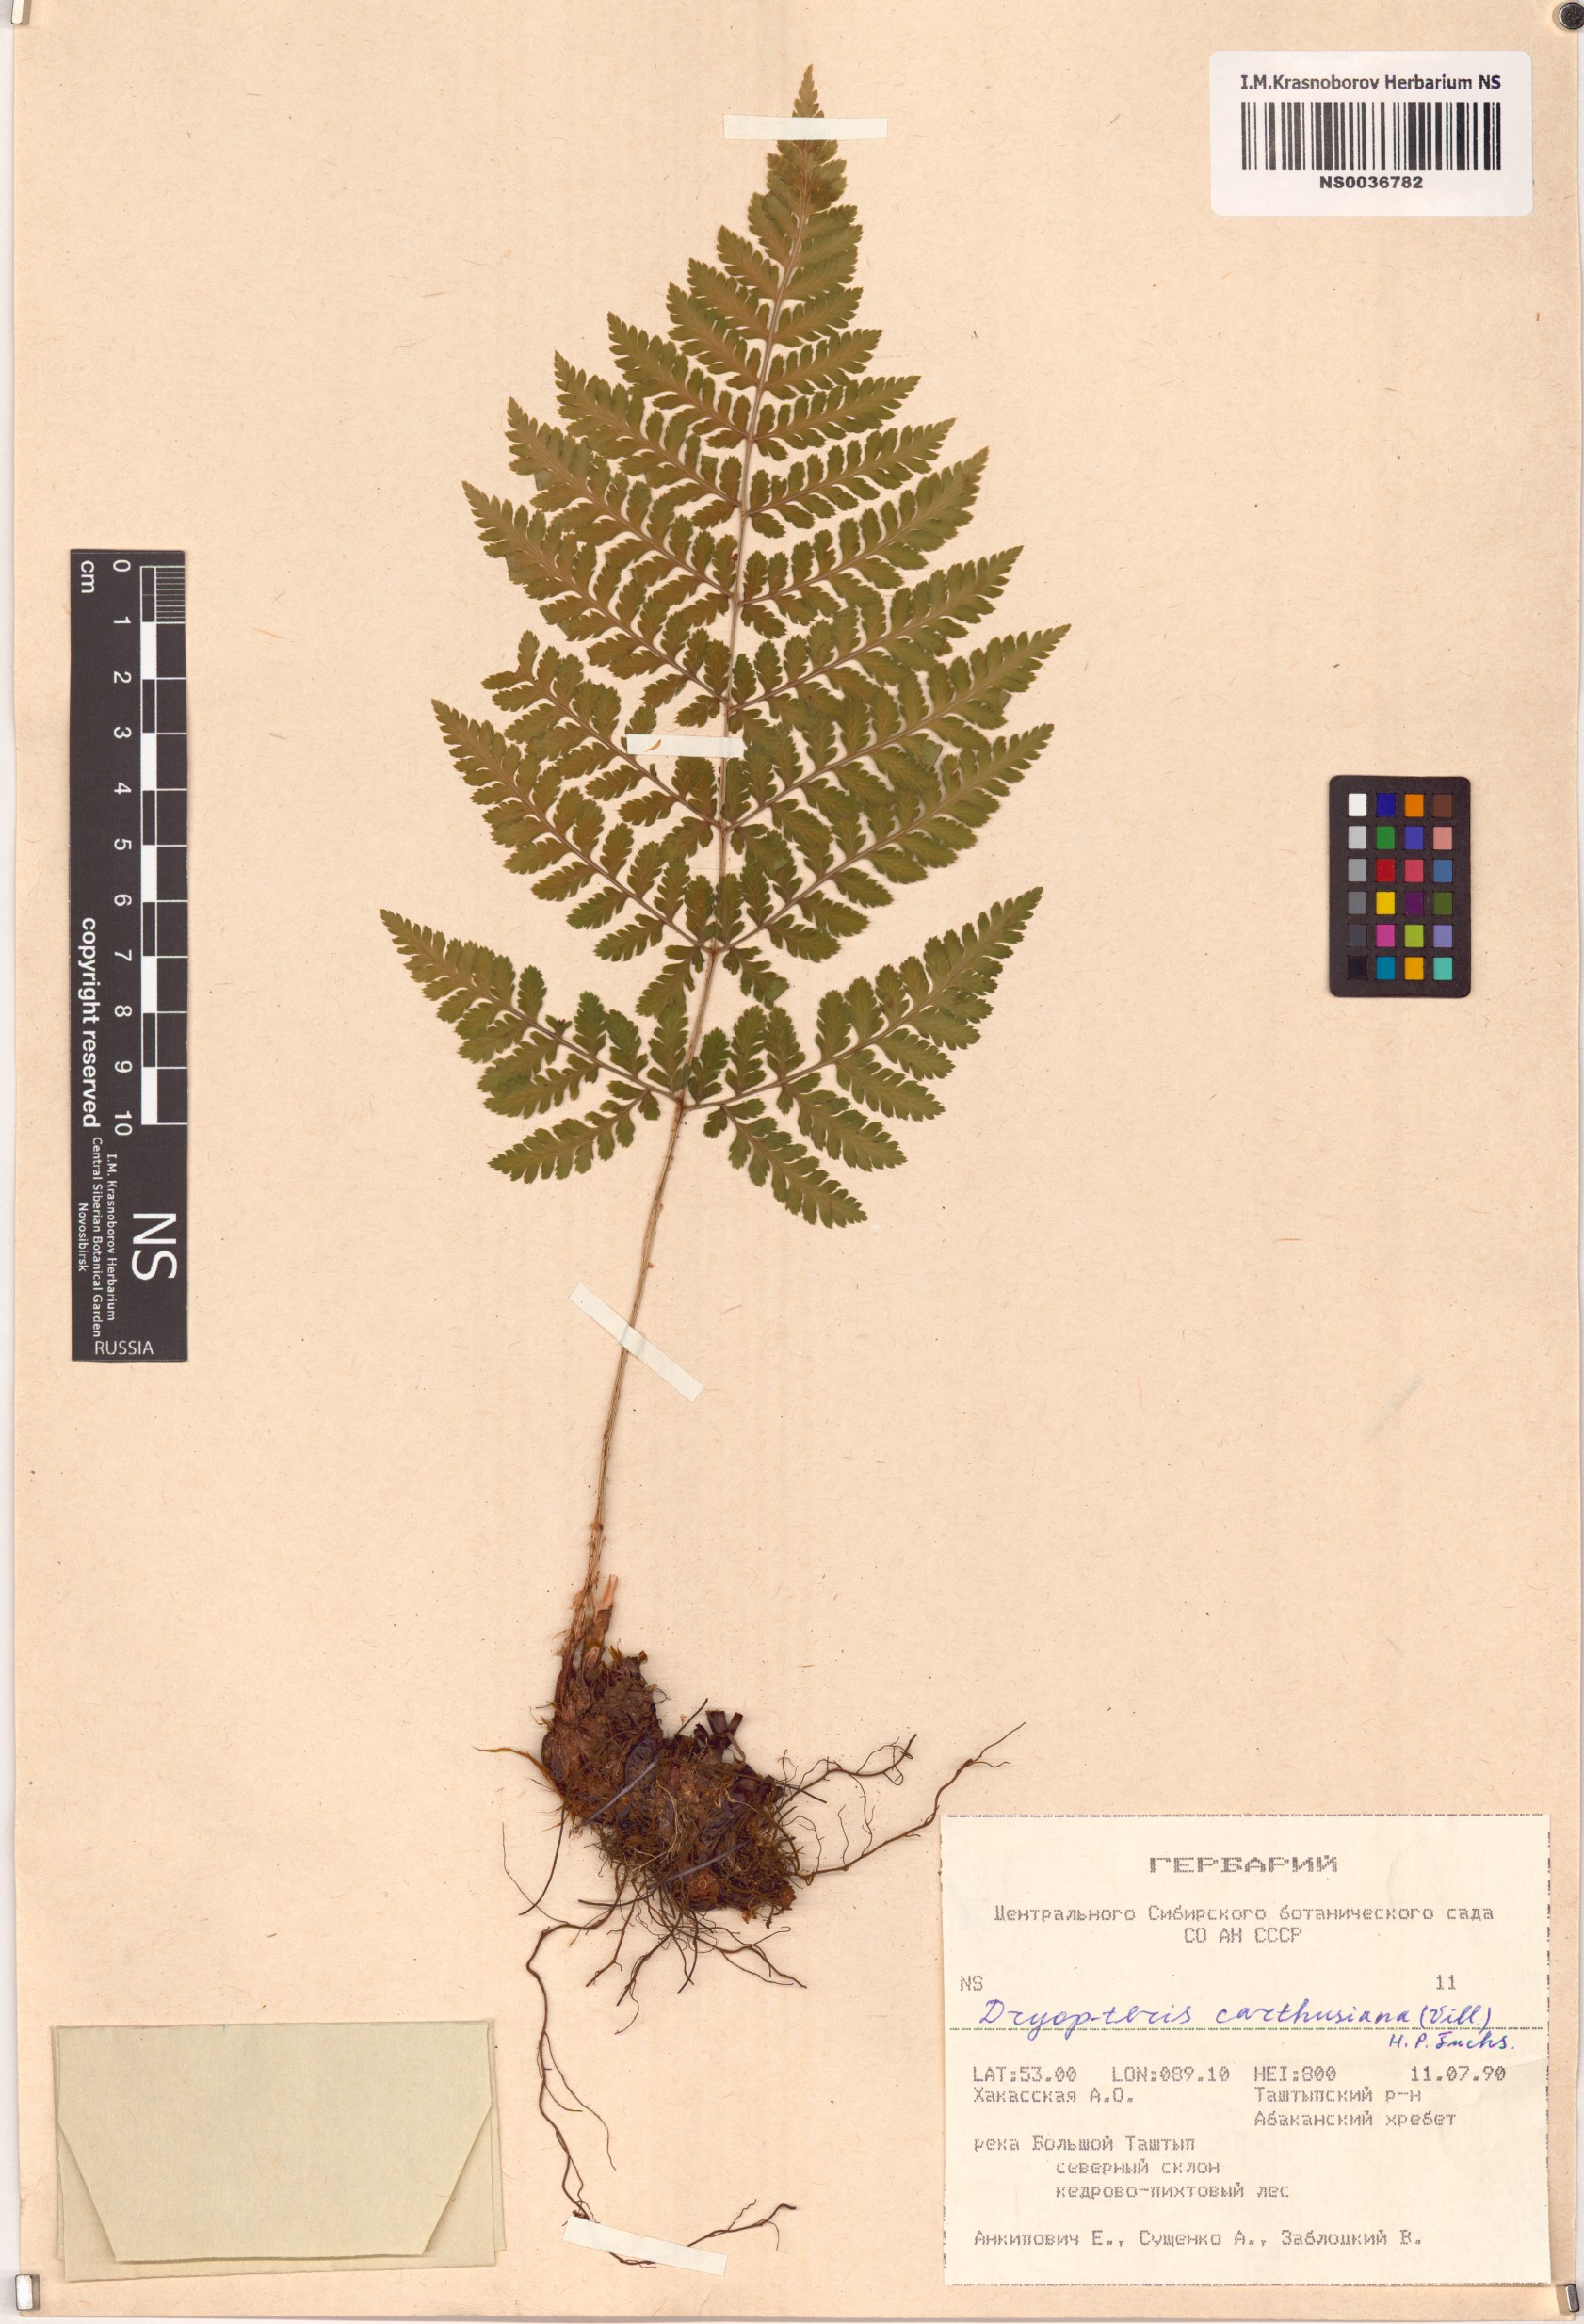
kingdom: Plantae
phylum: Tracheophyta
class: Polypodiopsida
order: Polypodiales
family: Dryopteridaceae
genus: Dryopteris
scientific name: Dryopteris carthusiana
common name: Narrow buckler-fern
